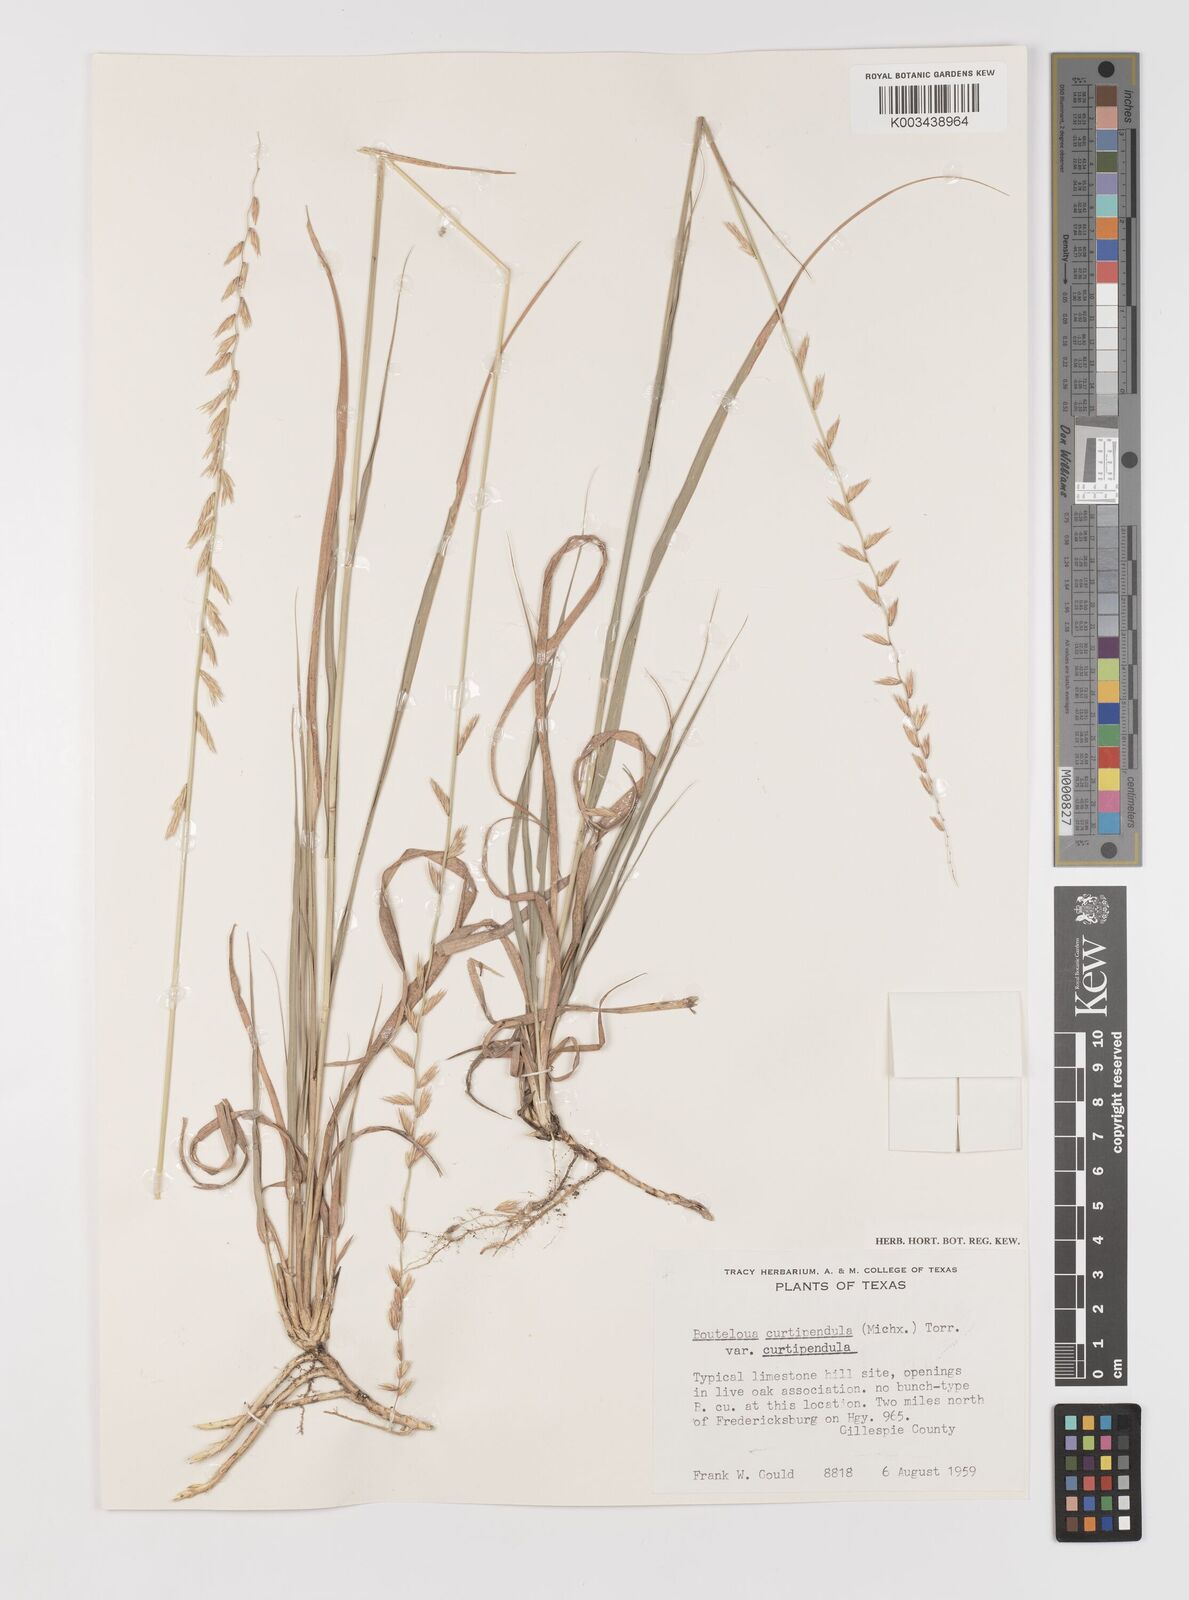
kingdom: Plantae
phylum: Tracheophyta
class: Liliopsida
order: Poales
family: Poaceae
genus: Bouteloua
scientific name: Bouteloua curtipendula
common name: Side-oats grama
